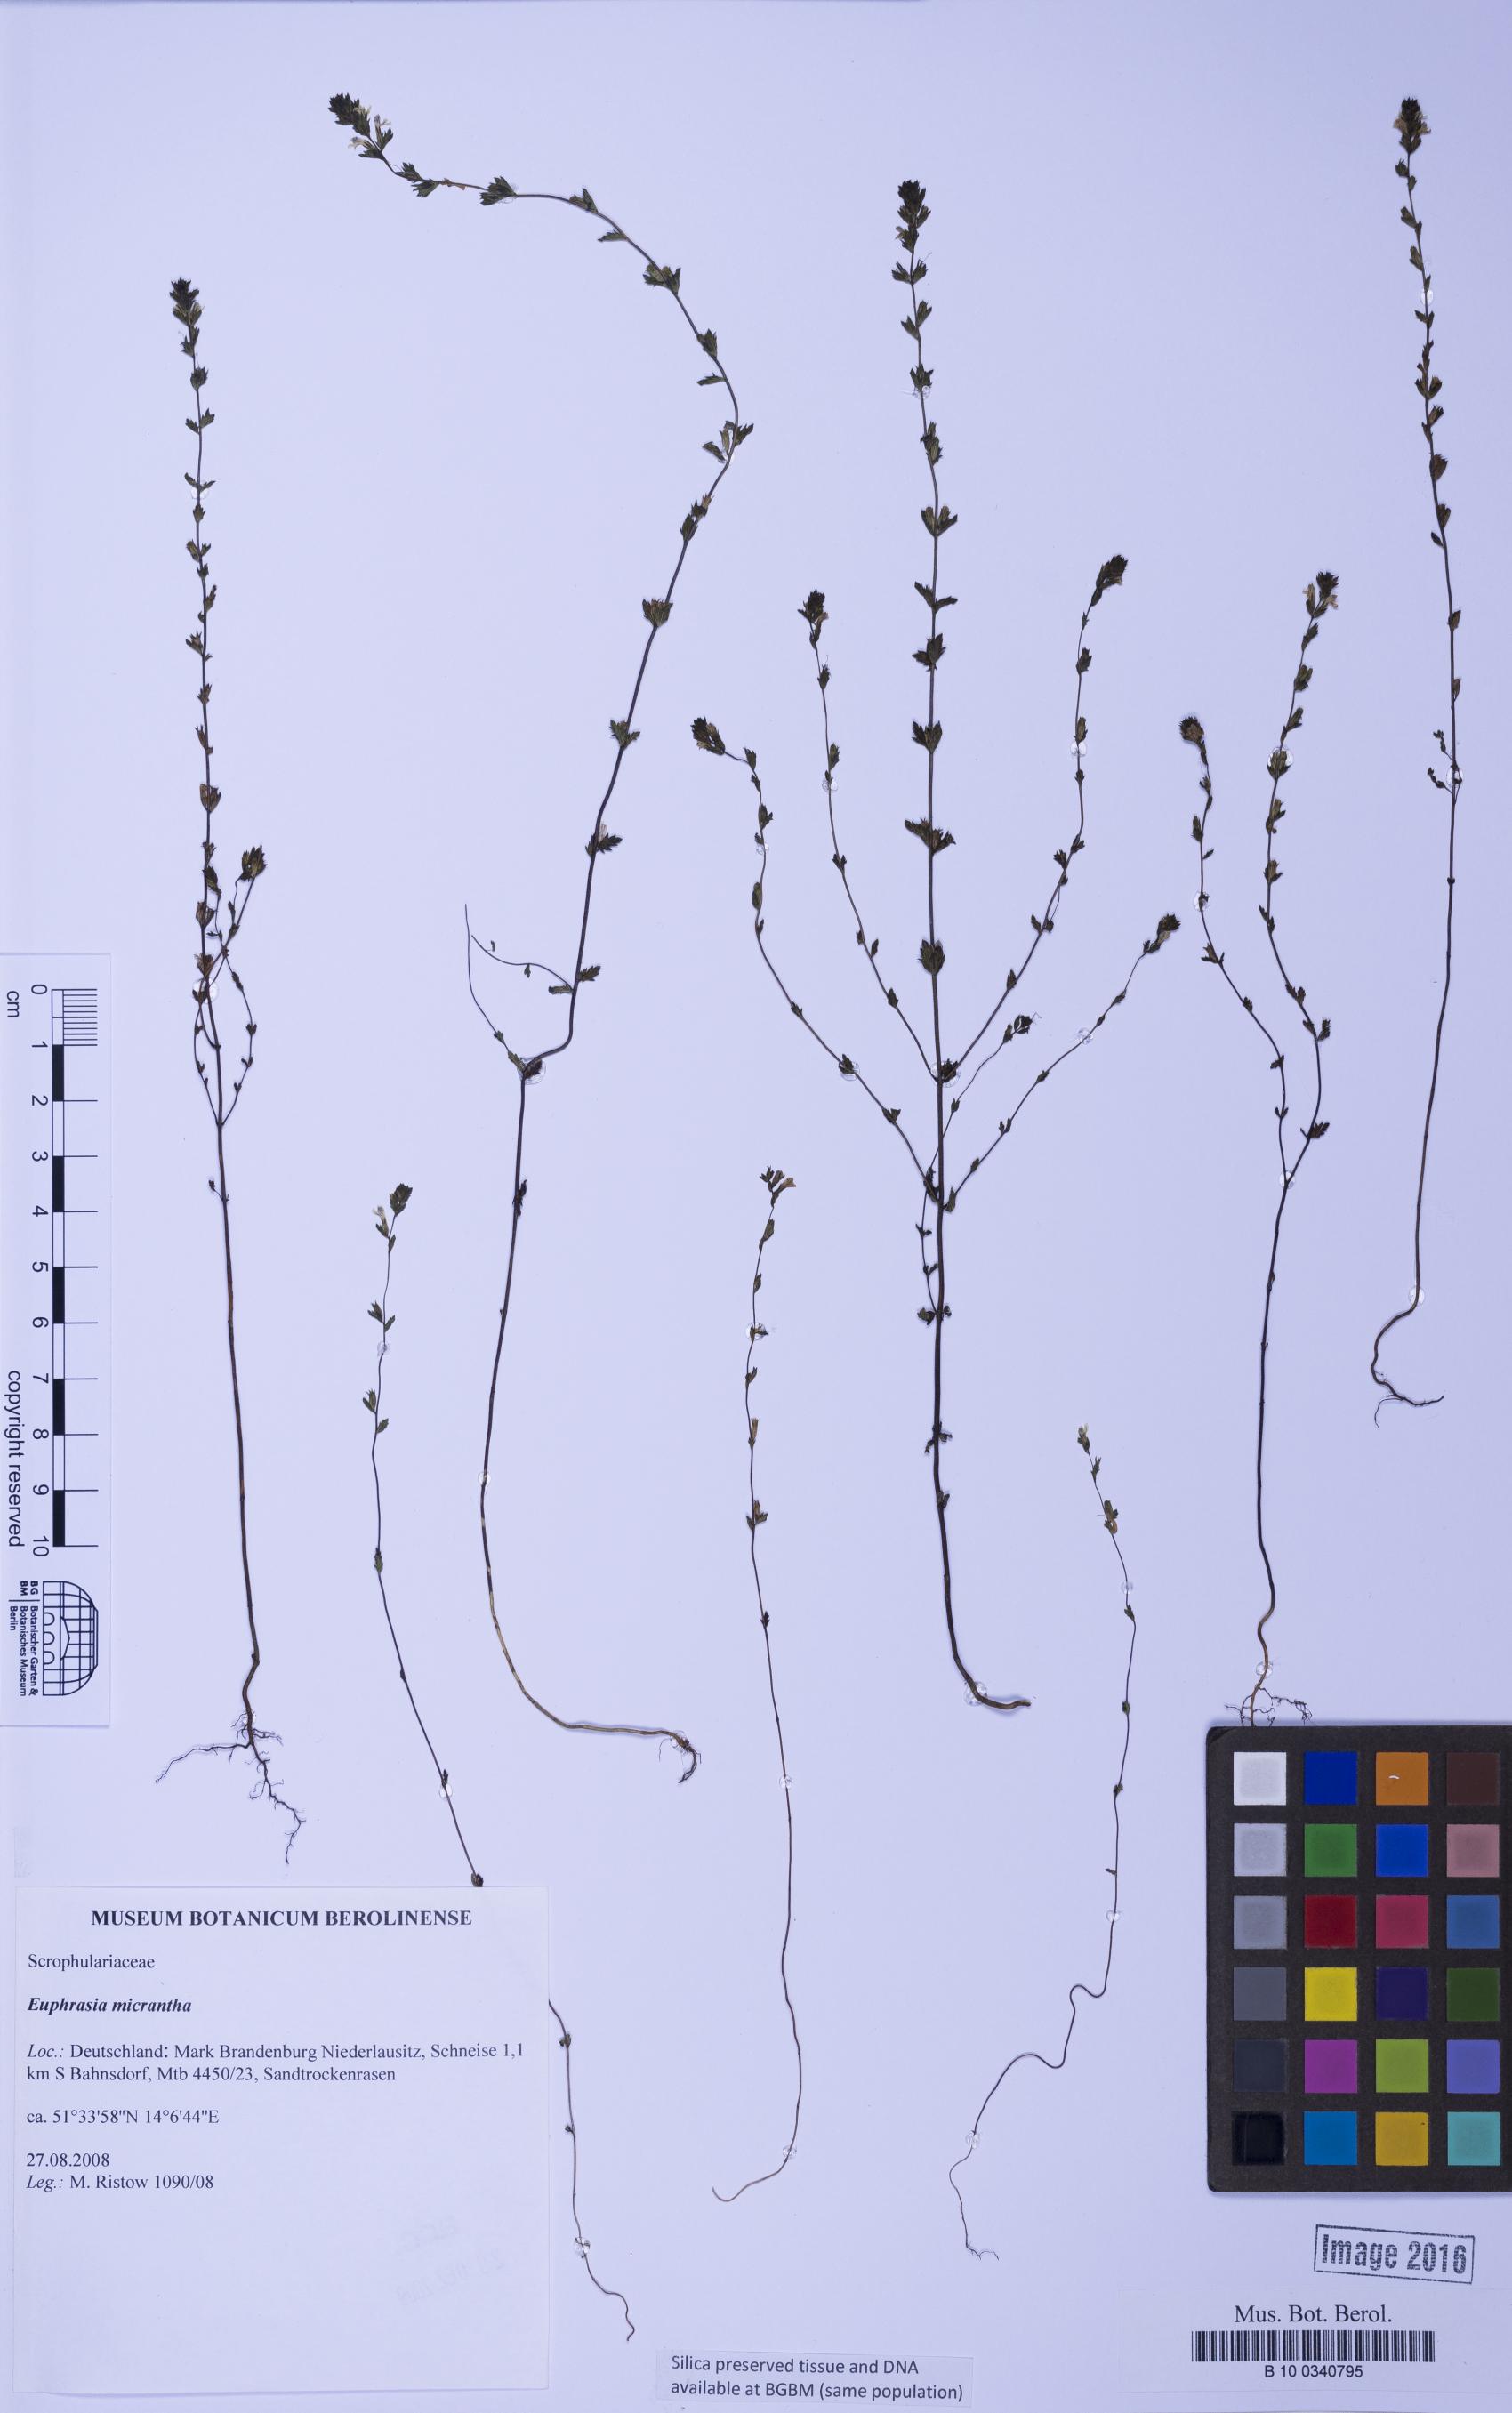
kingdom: Plantae
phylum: Tracheophyta
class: Magnoliopsida
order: Lamiales
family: Orobanchaceae
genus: Euphrasia
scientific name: Euphrasia micrantha
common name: Northern eyebright
